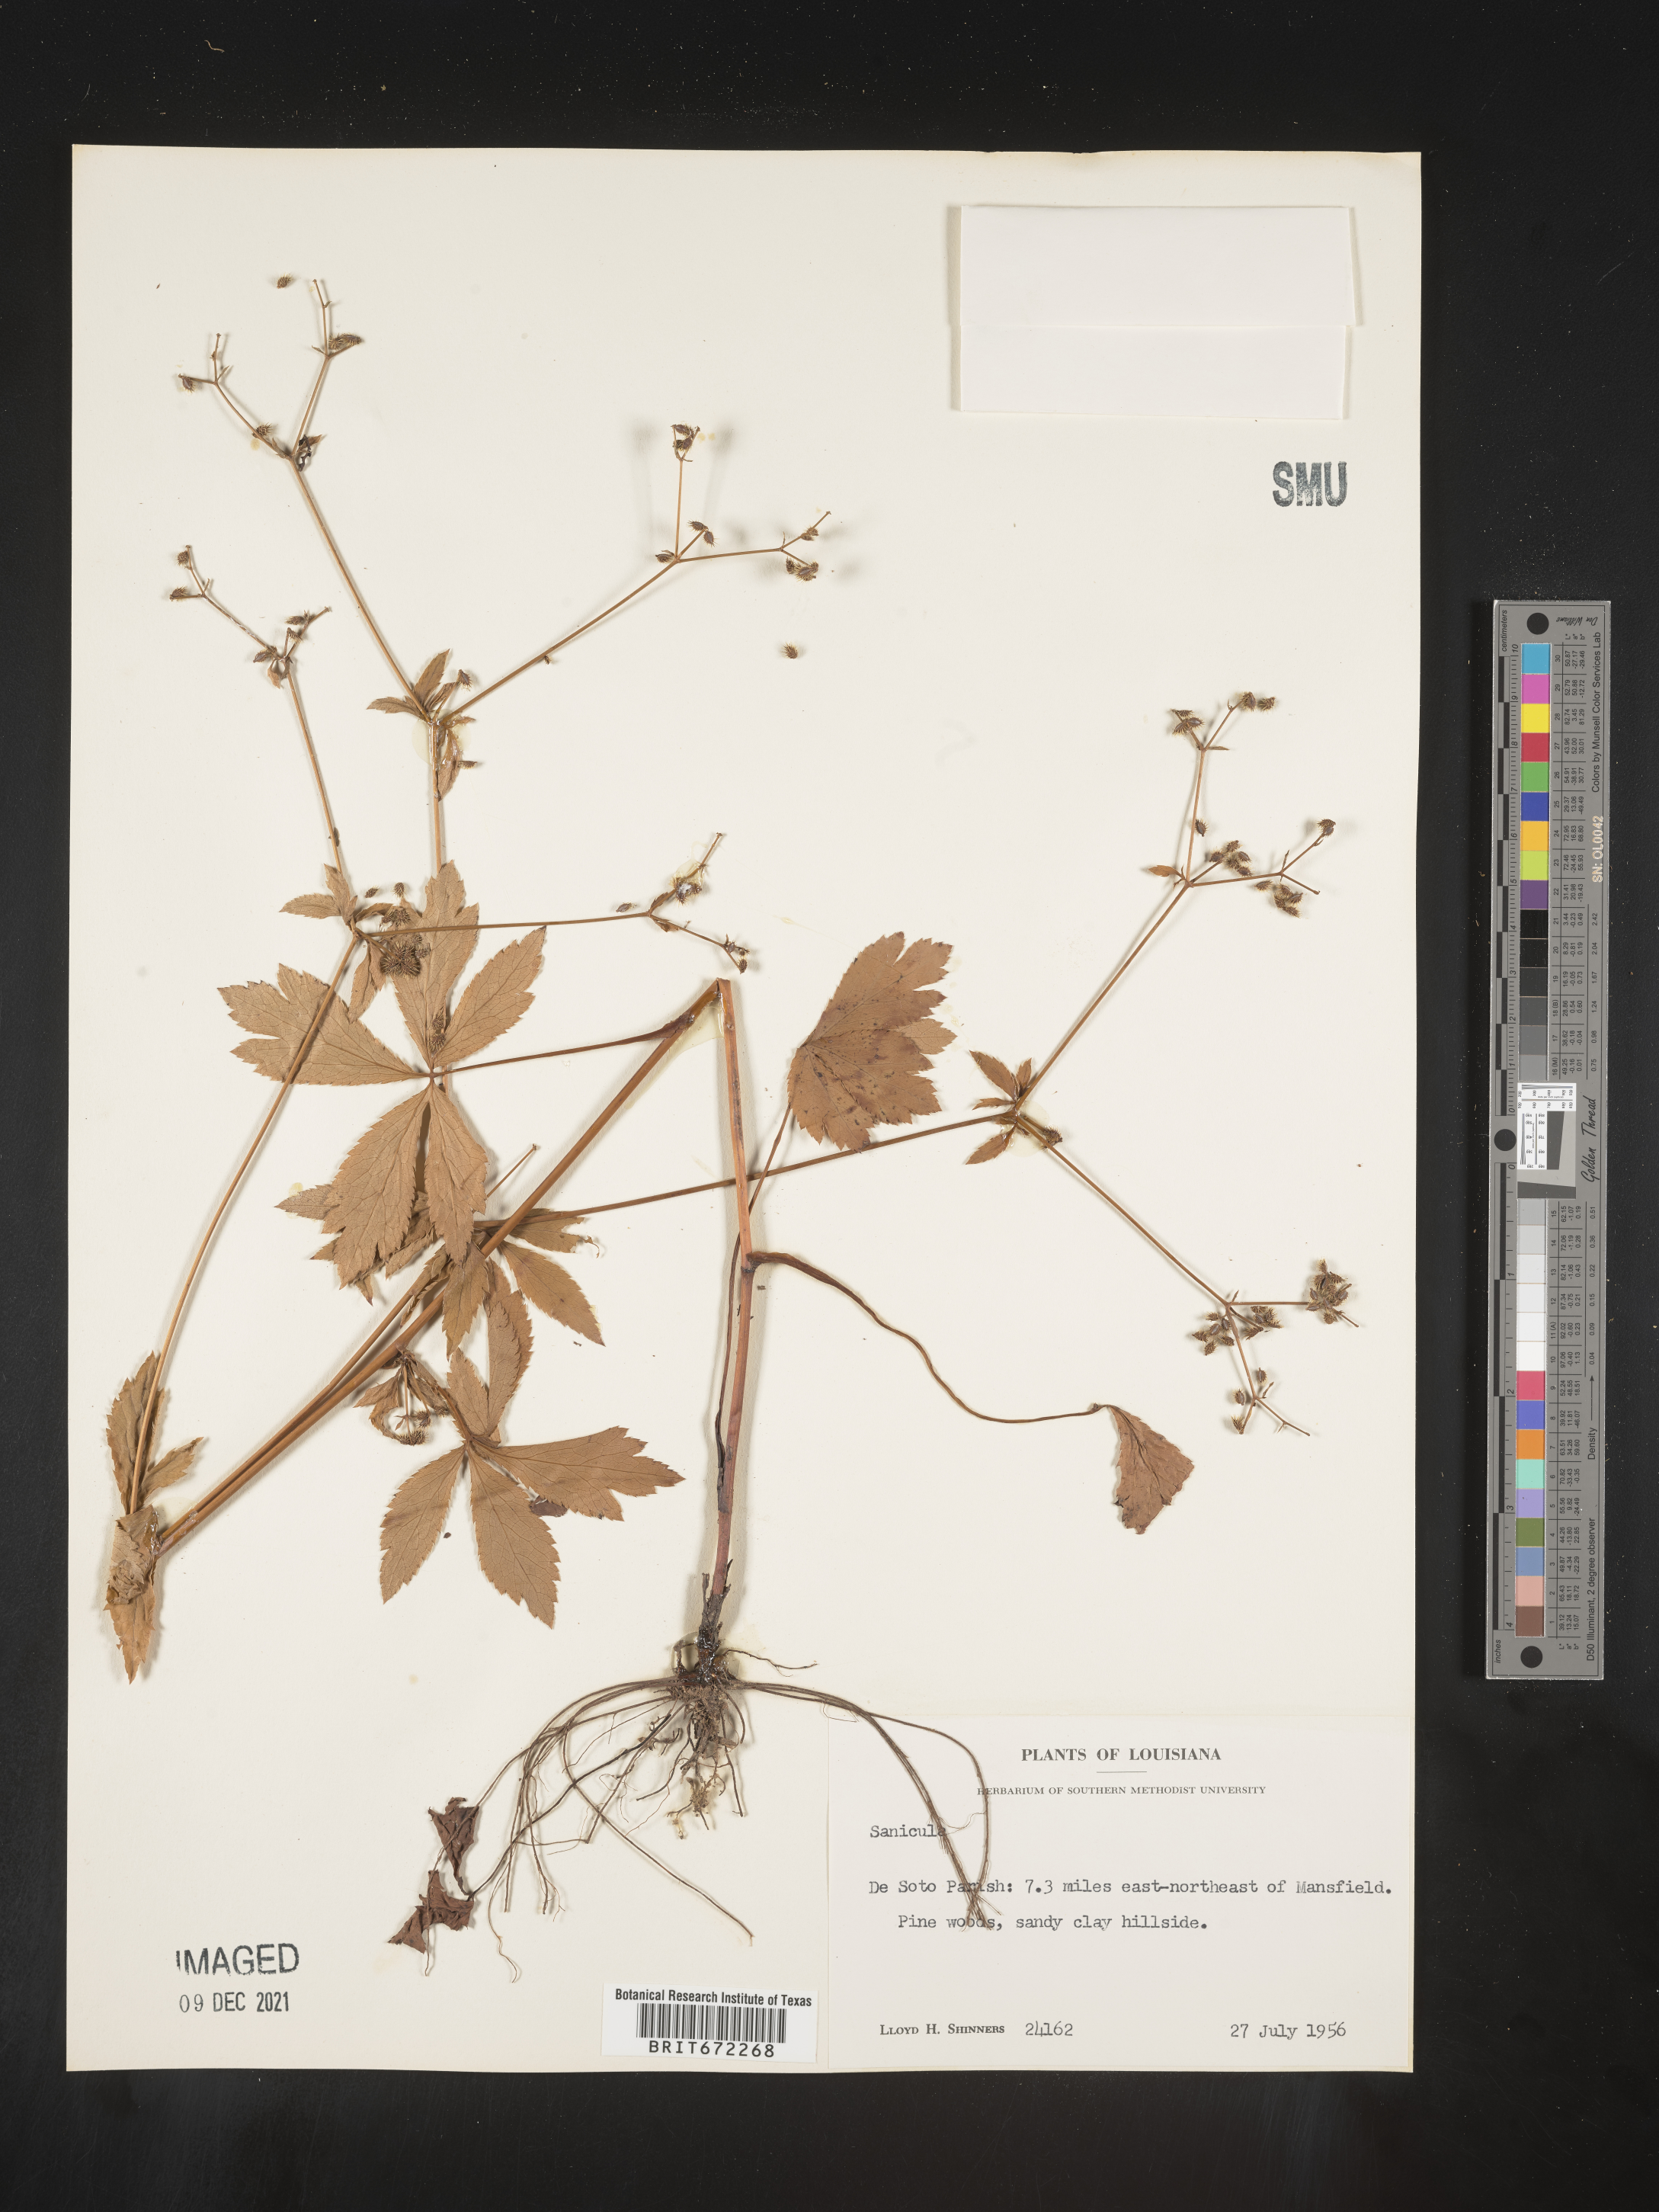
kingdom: Plantae
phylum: Tracheophyta
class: Magnoliopsida
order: Apiales
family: Apiaceae
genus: Sanicula
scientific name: Sanicula
